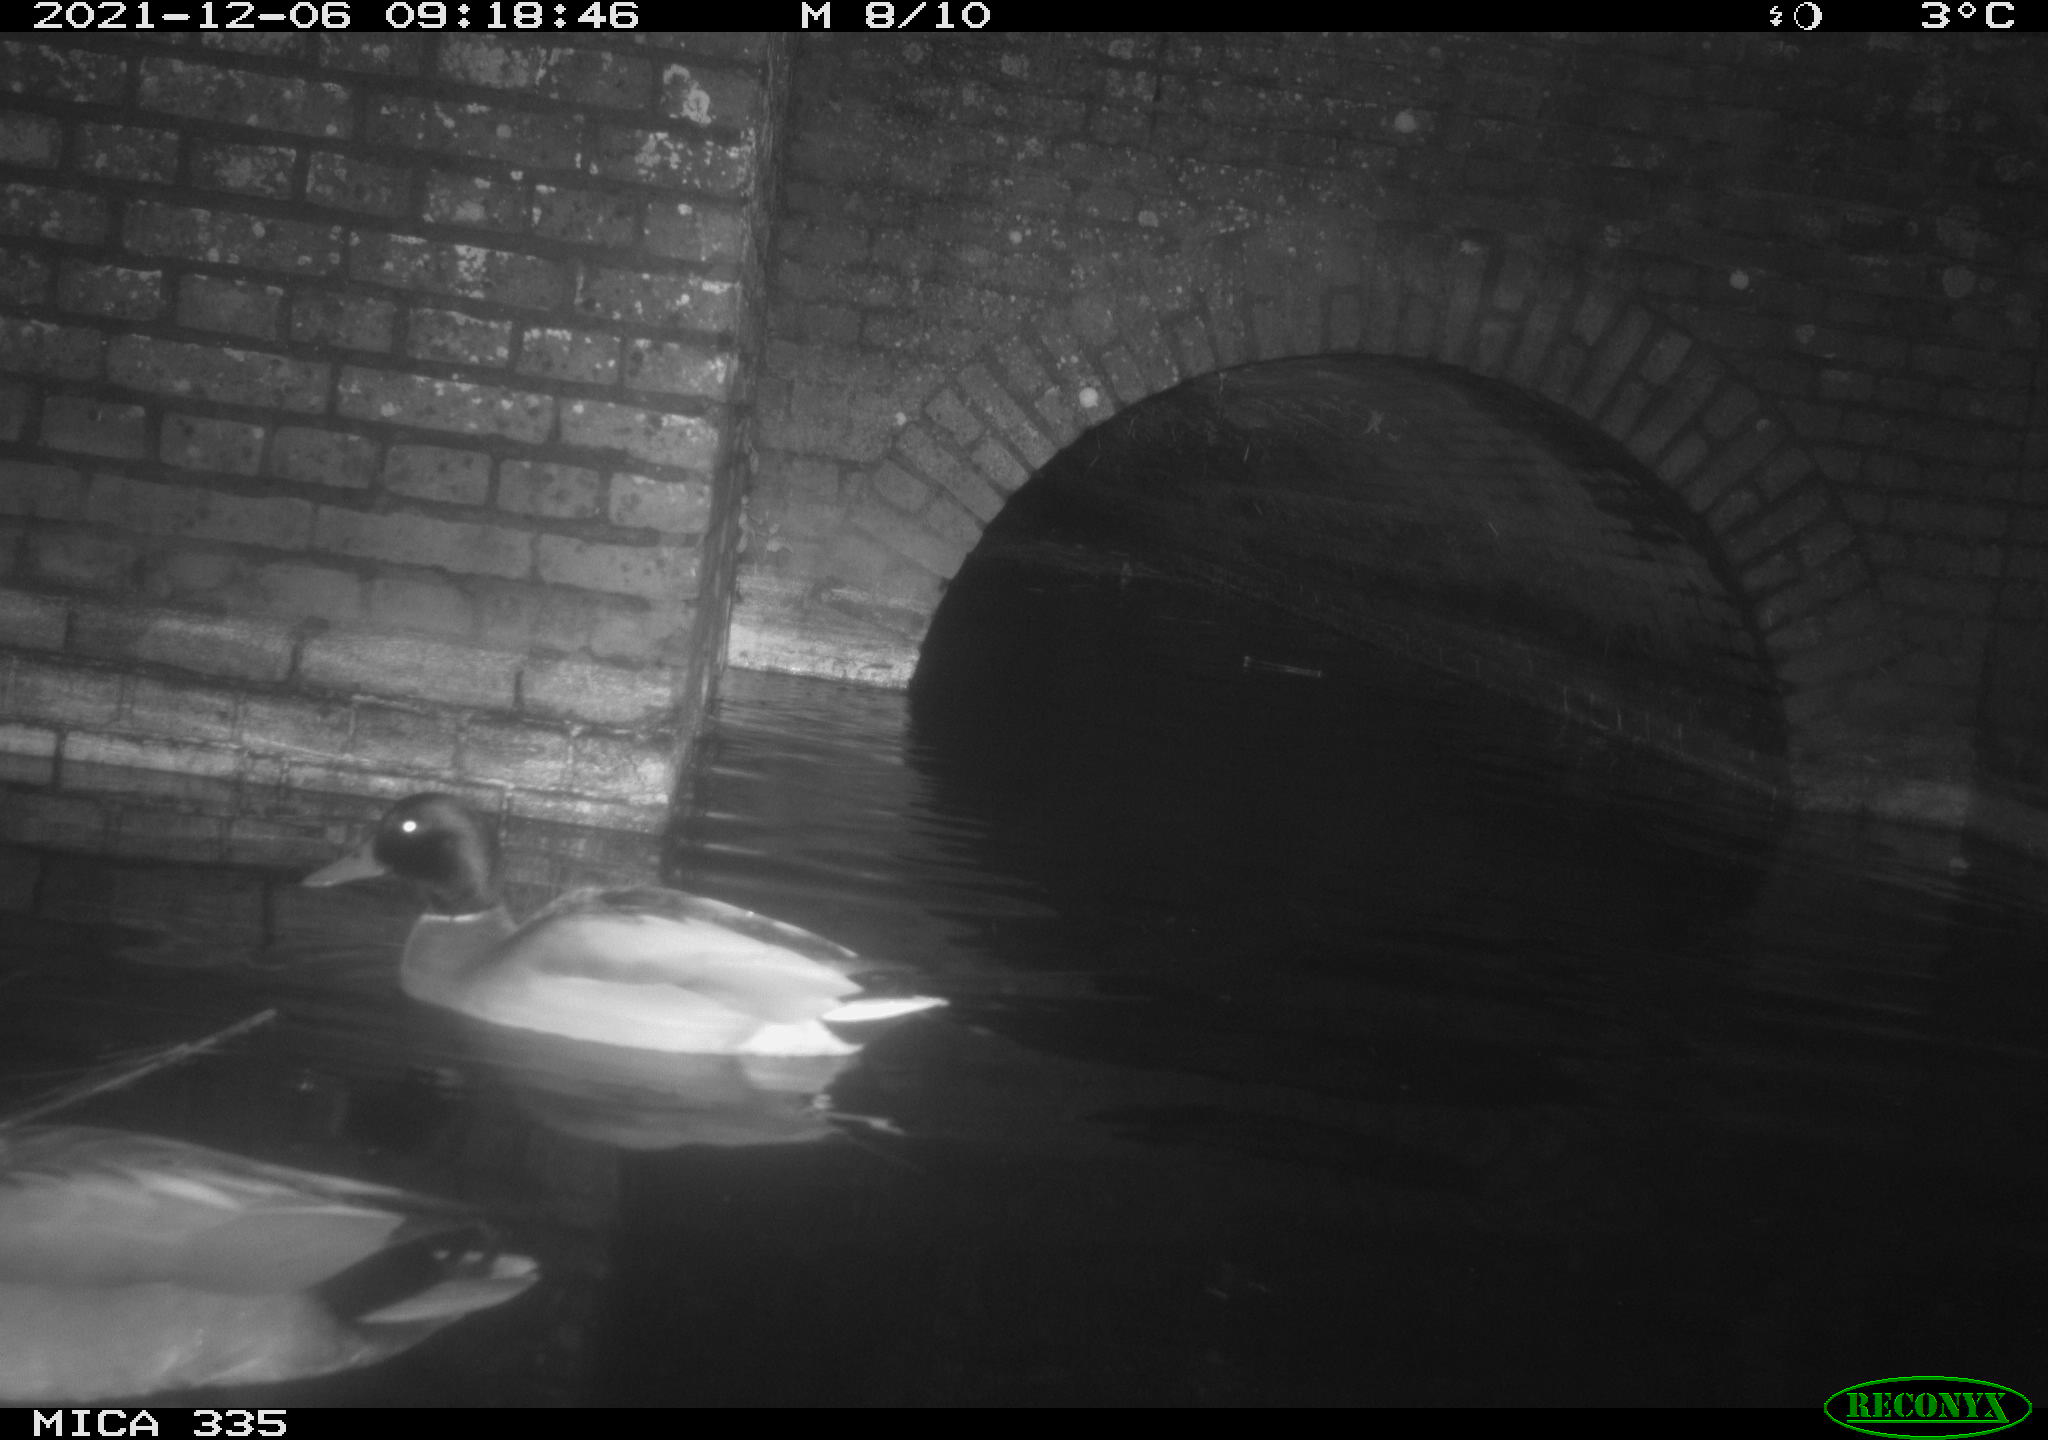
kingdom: Animalia
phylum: Chordata
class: Aves
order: Anseriformes
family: Anatidae
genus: Anas
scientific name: Anas platyrhynchos
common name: Mallard
